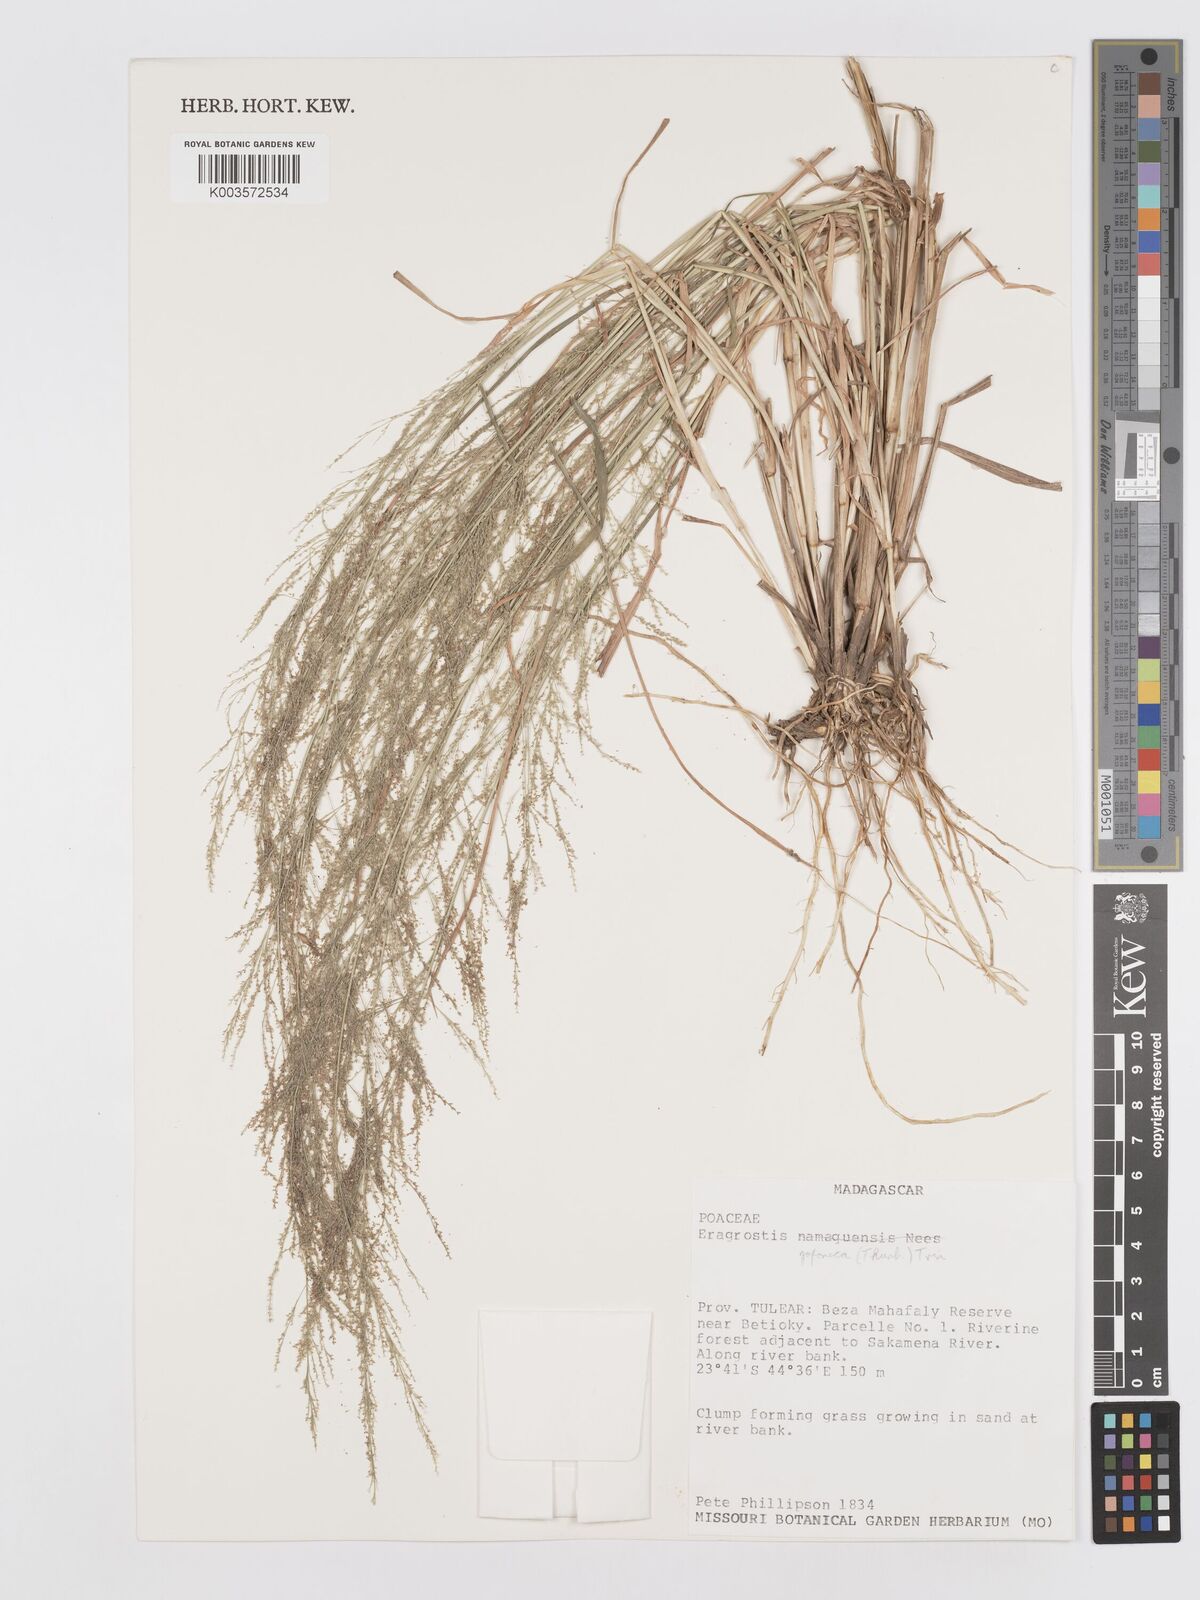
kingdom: Plantae
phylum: Tracheophyta
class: Liliopsida
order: Poales
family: Poaceae
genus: Eragrostis
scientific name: Eragrostis japonica
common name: Pond lovegrass
